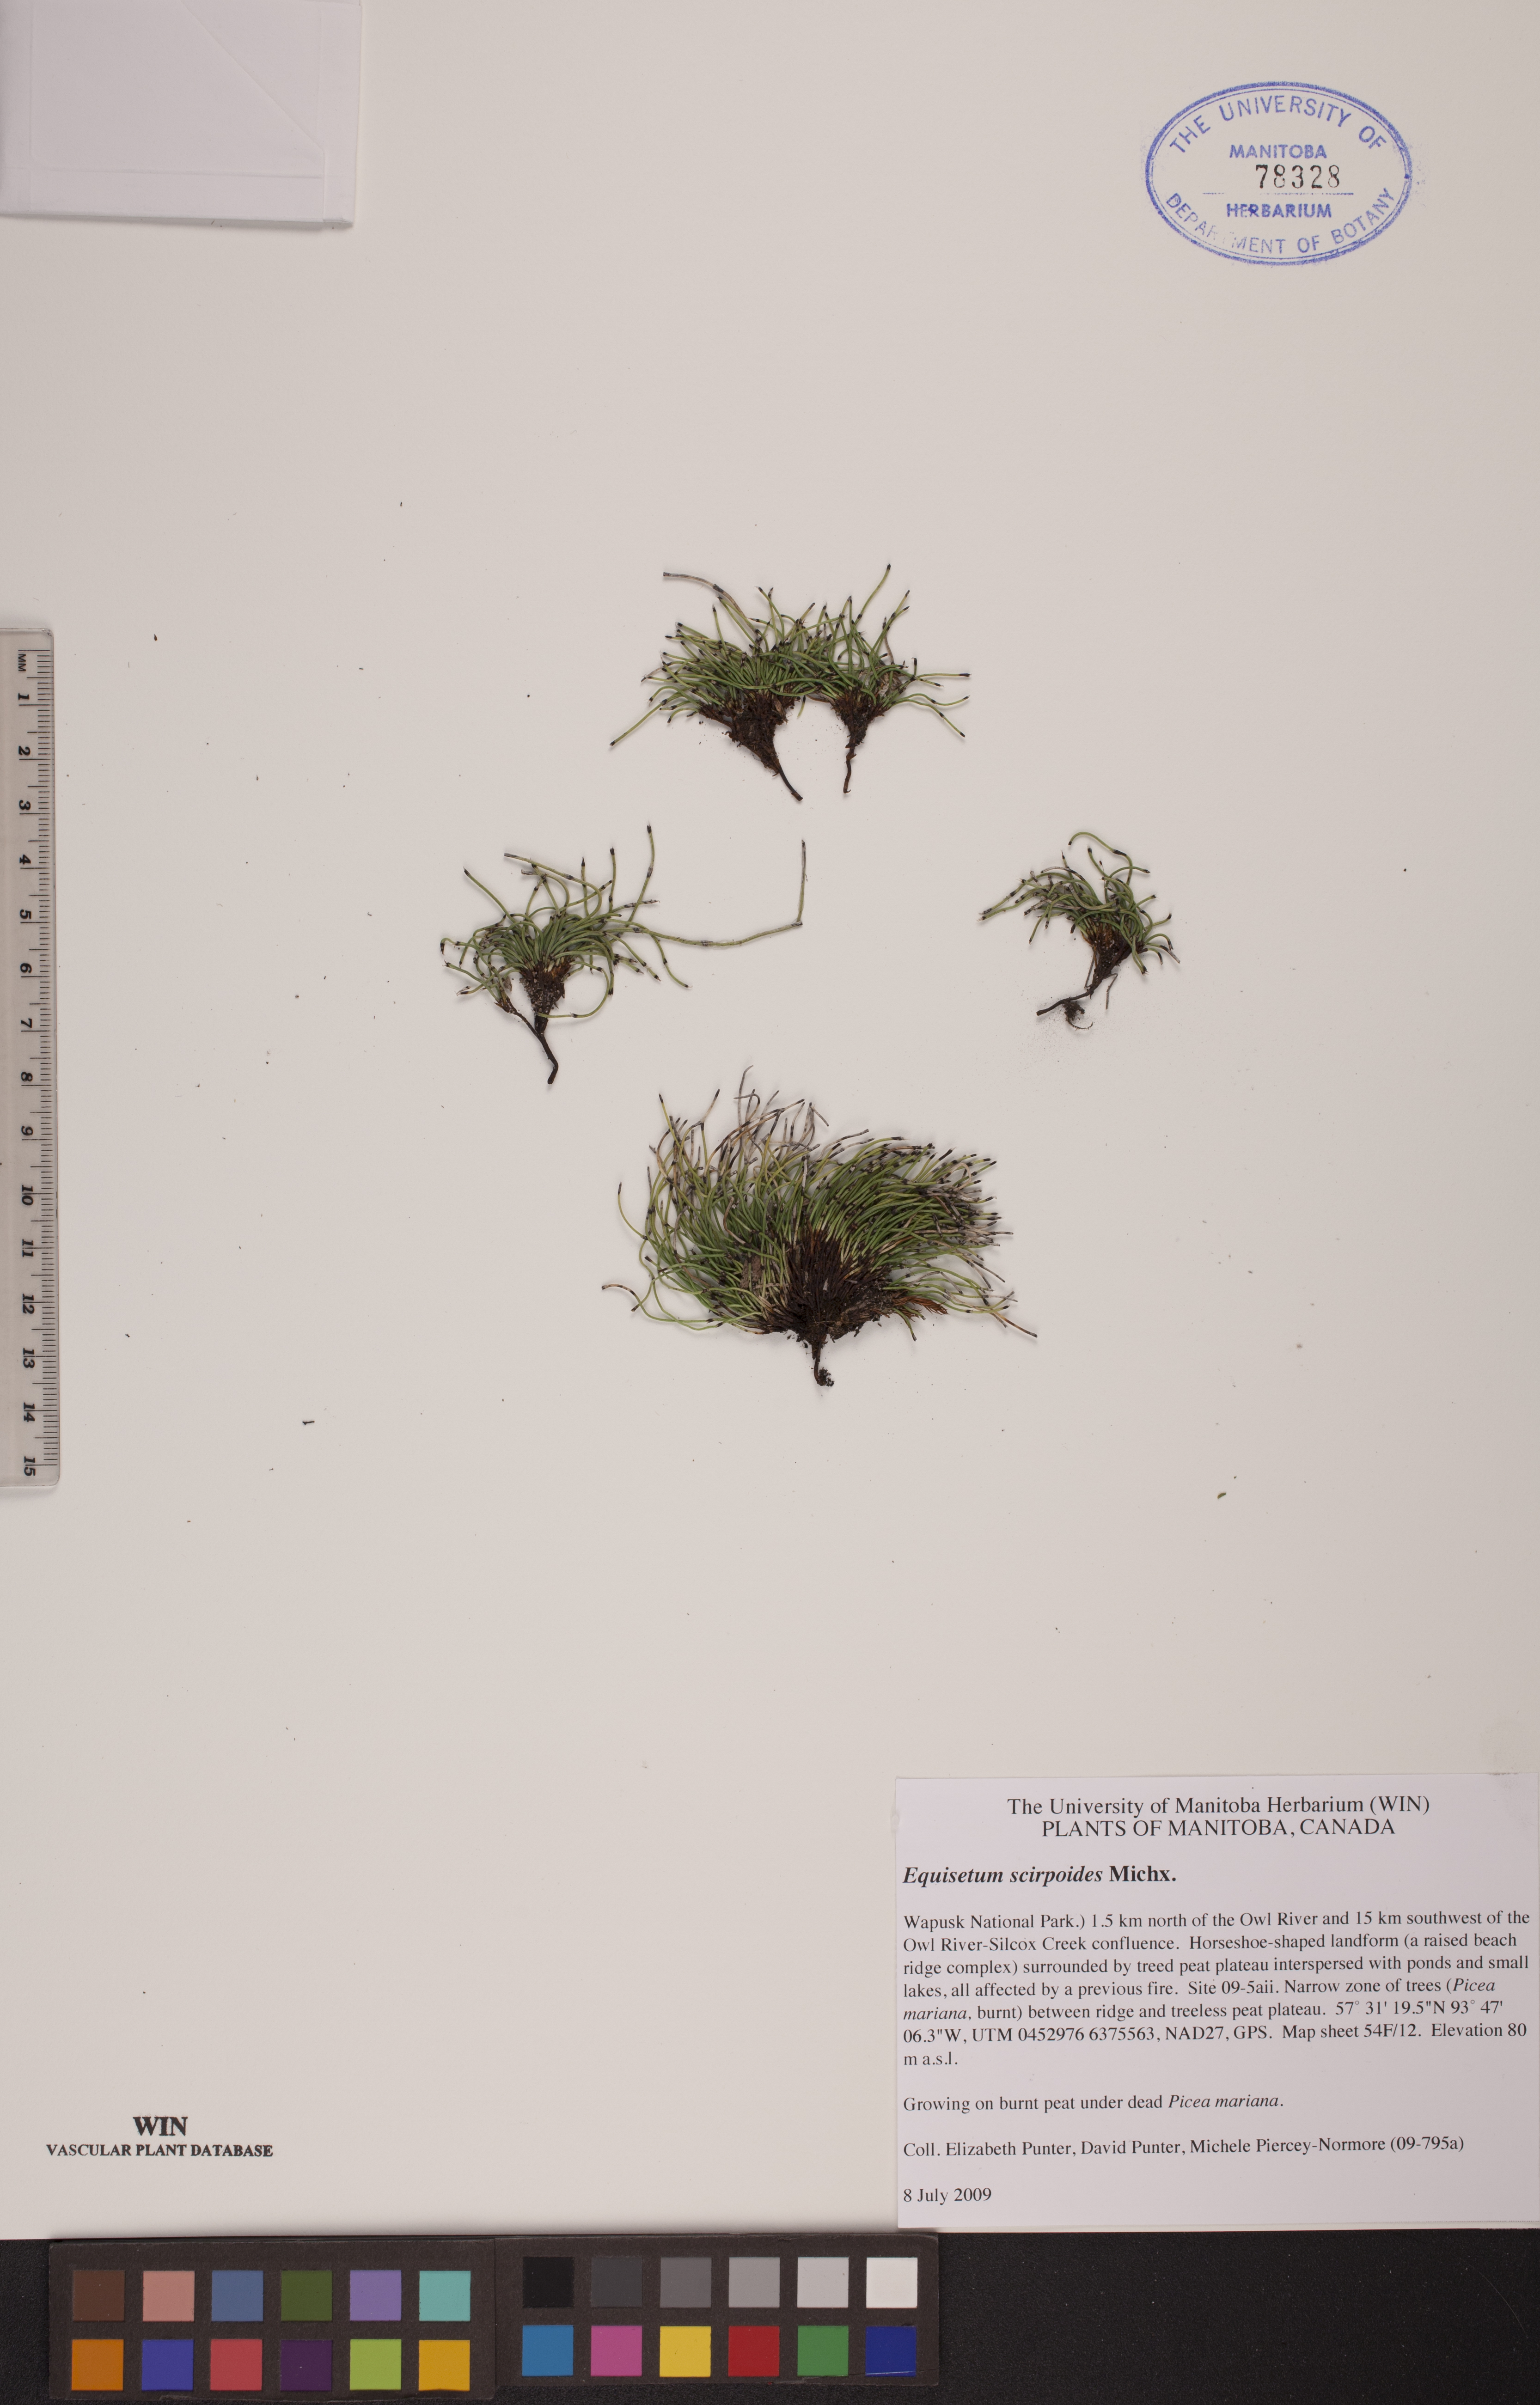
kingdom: Plantae
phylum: Tracheophyta
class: Polypodiopsida
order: Equisetales
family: Equisetaceae
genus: Equisetum
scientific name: Equisetum scirpoides
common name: Delicate horsetail
